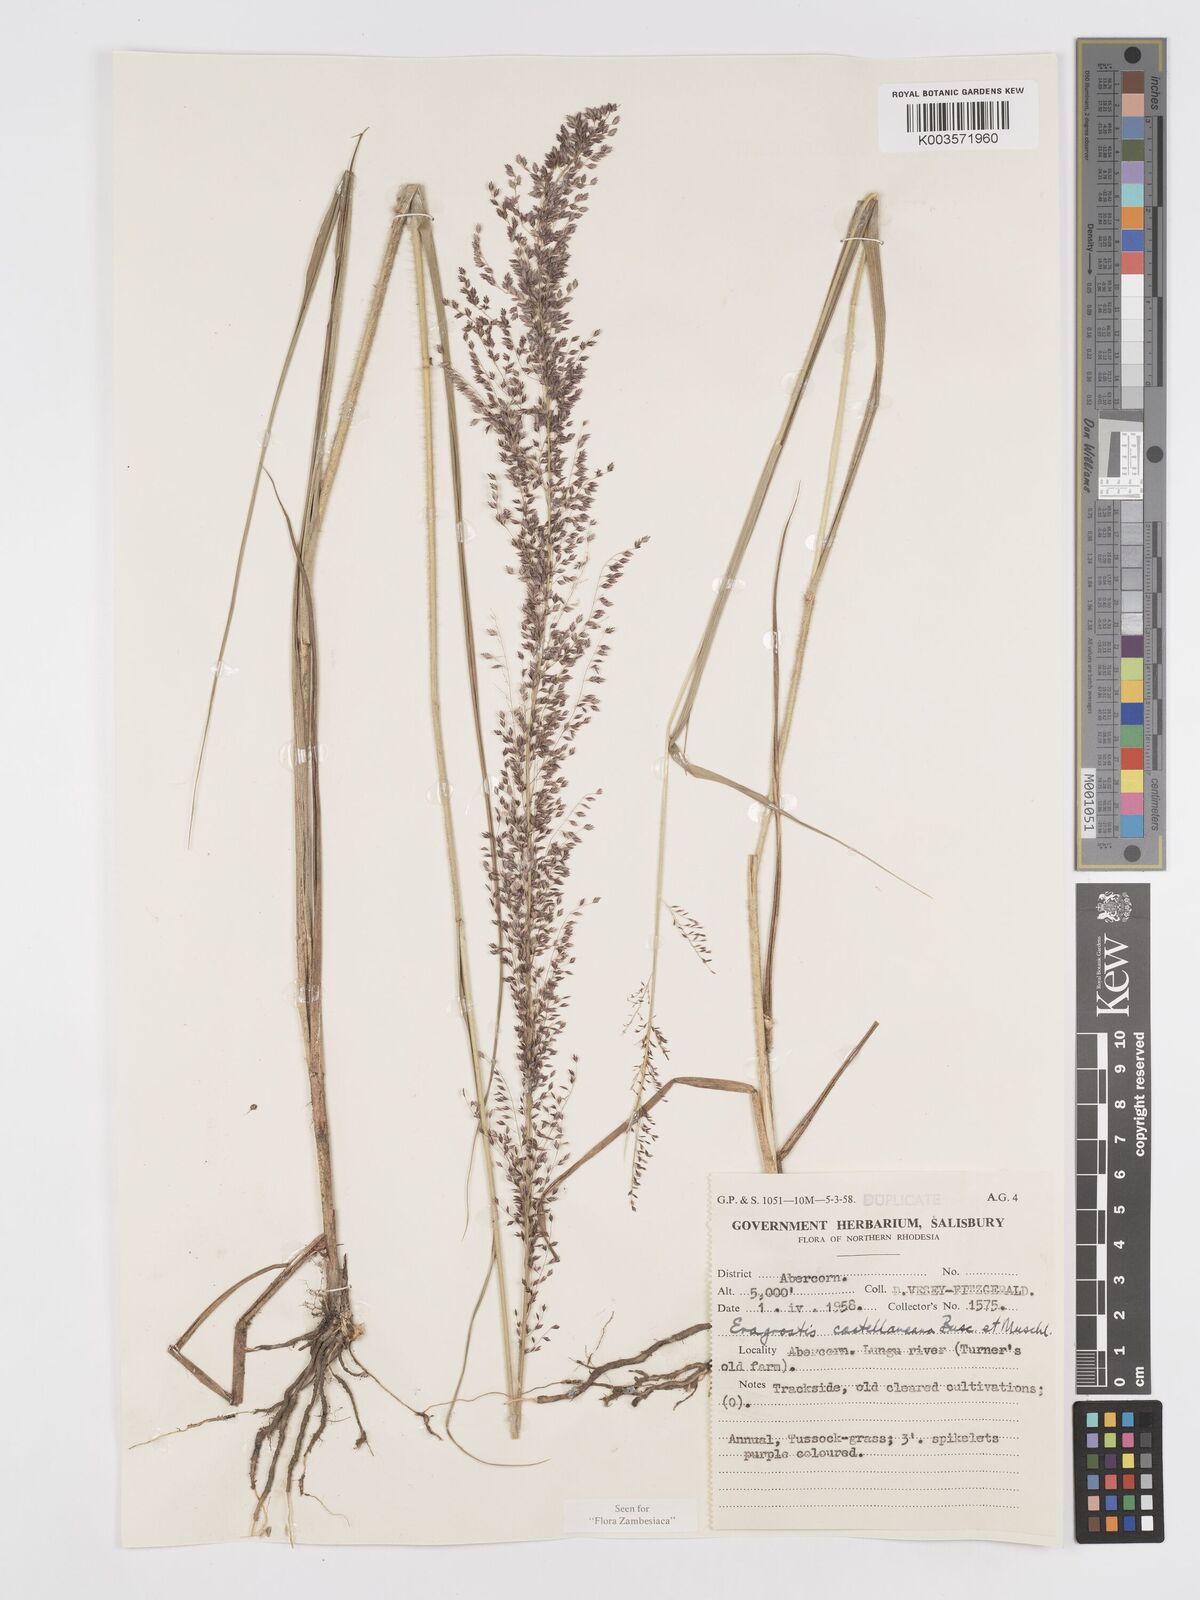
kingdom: Plantae
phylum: Tracheophyta
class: Liliopsida
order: Poales
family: Poaceae
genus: Eragrostis
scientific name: Eragrostis castellaneana
